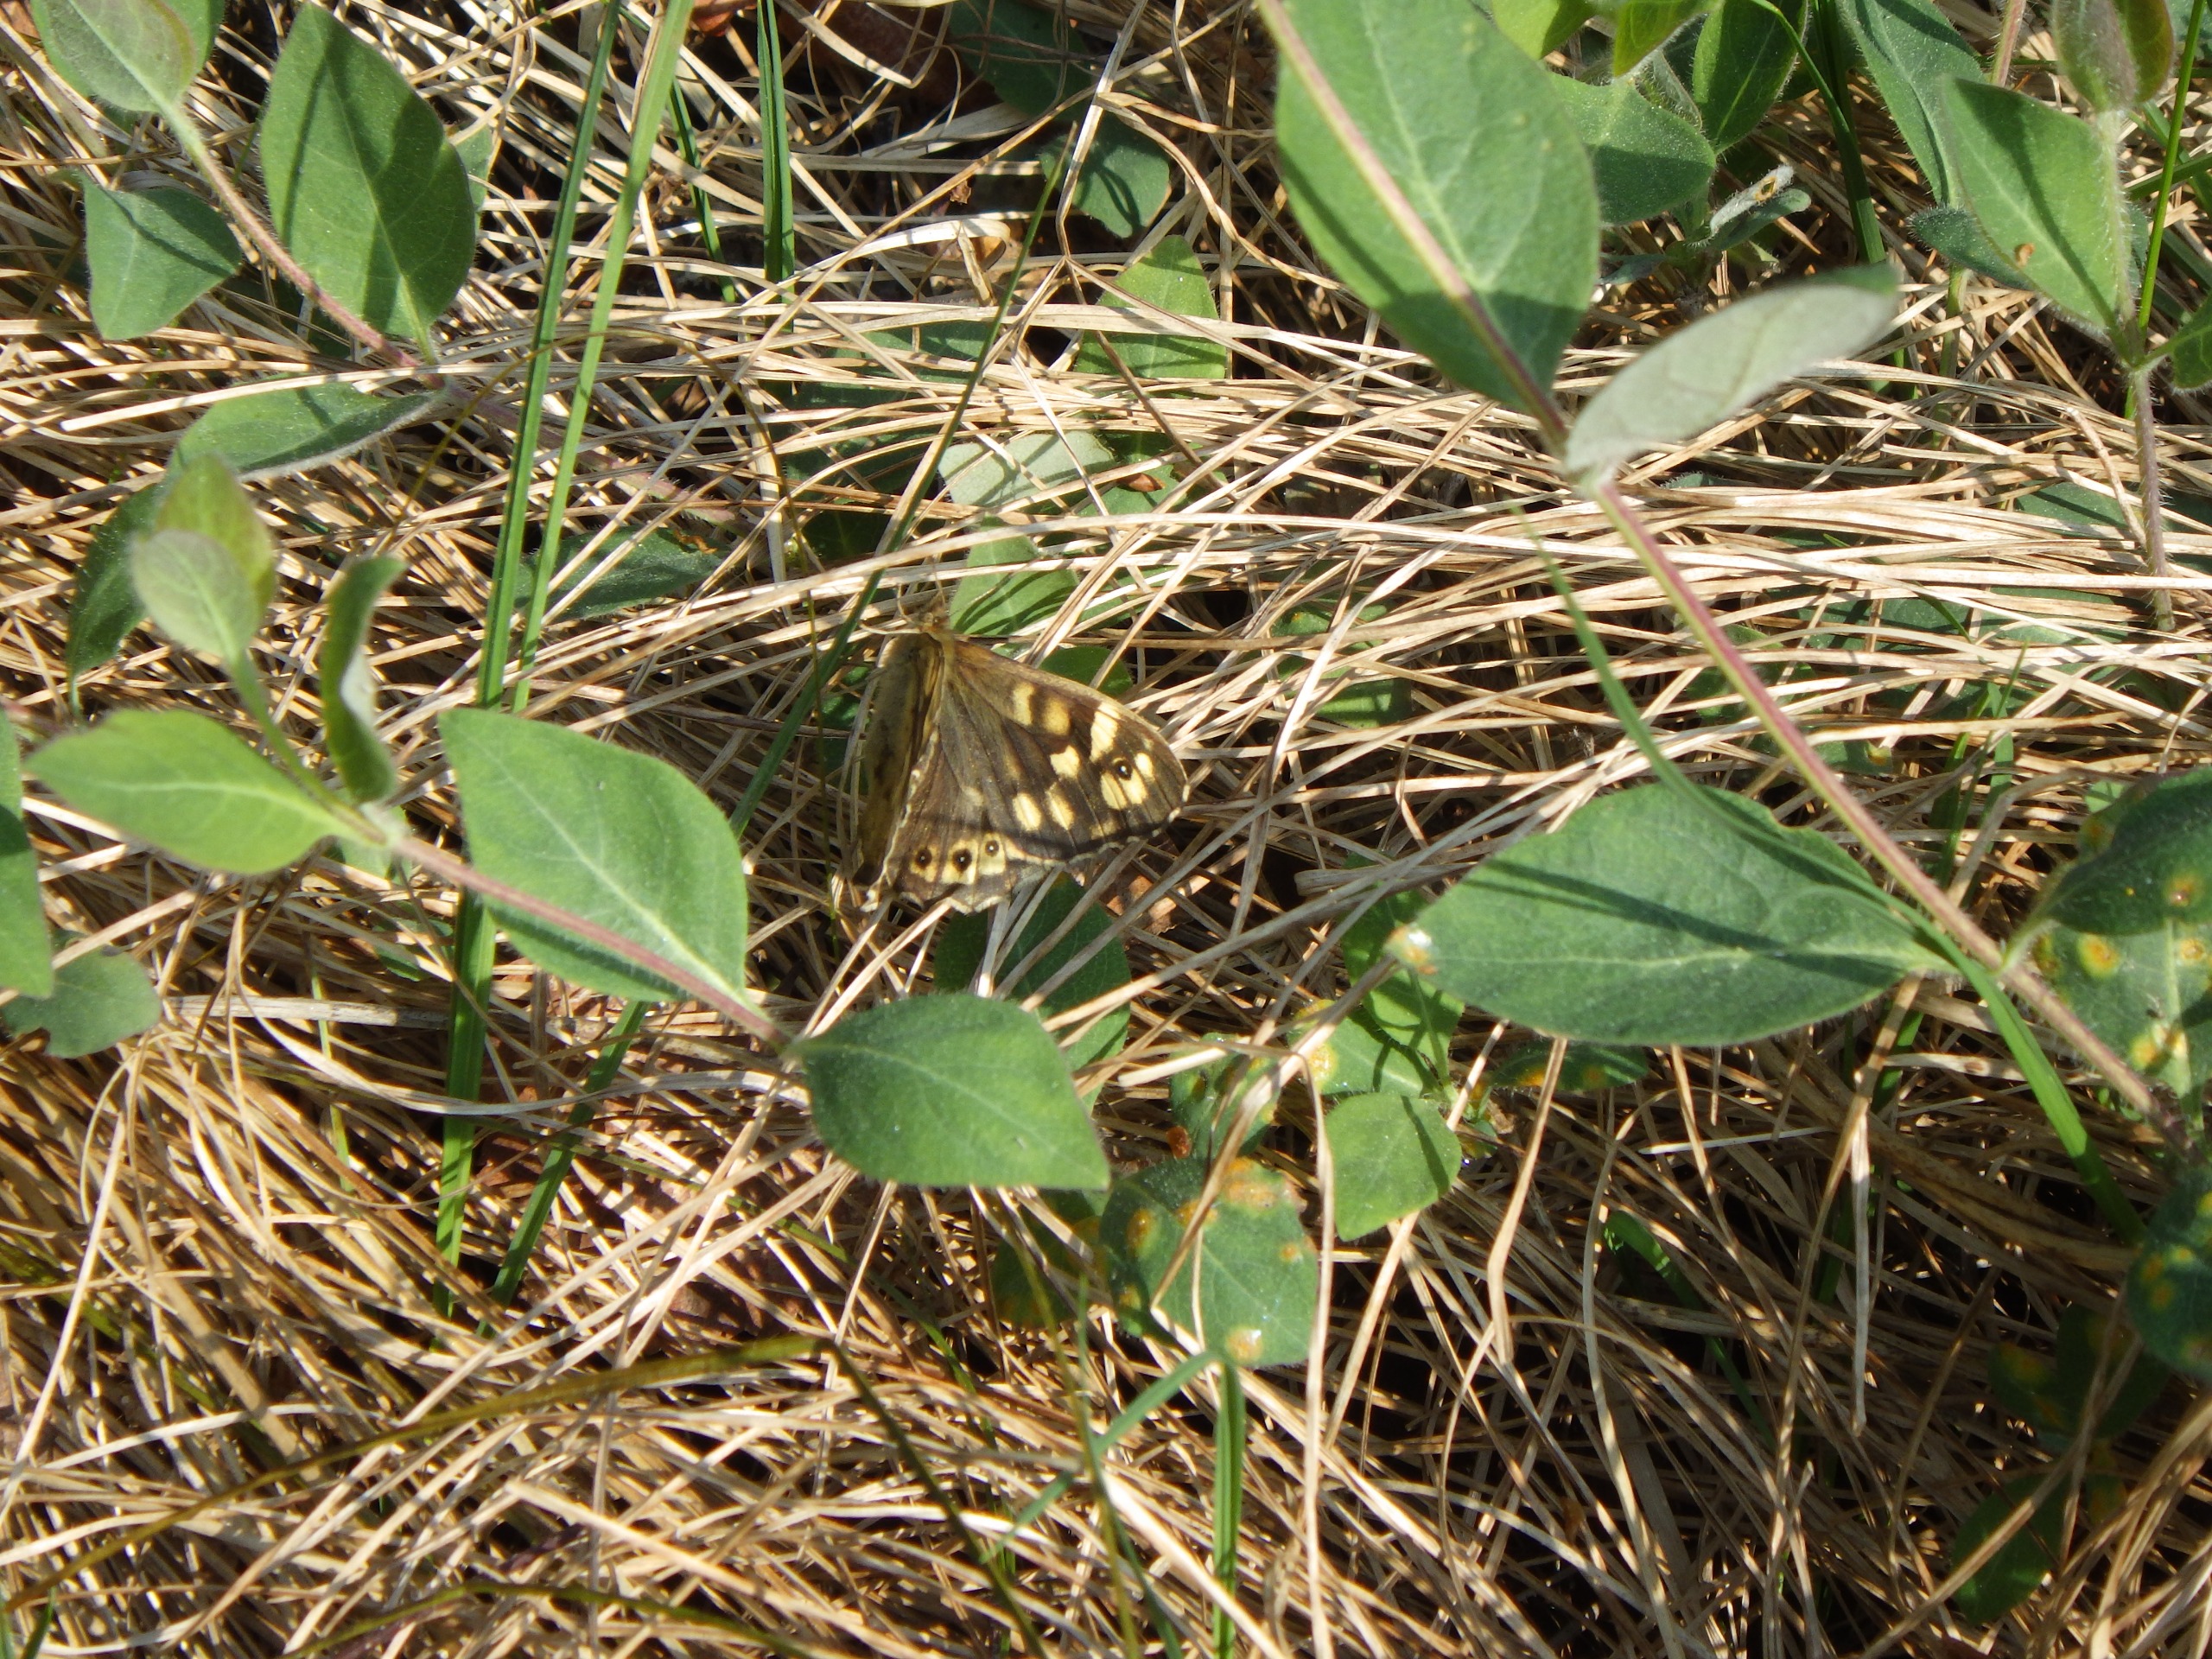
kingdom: Animalia
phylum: Arthropoda
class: Insecta
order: Lepidoptera
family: Nymphalidae
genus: Pararge
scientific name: Pararge aegeria
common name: Skovrandøje
